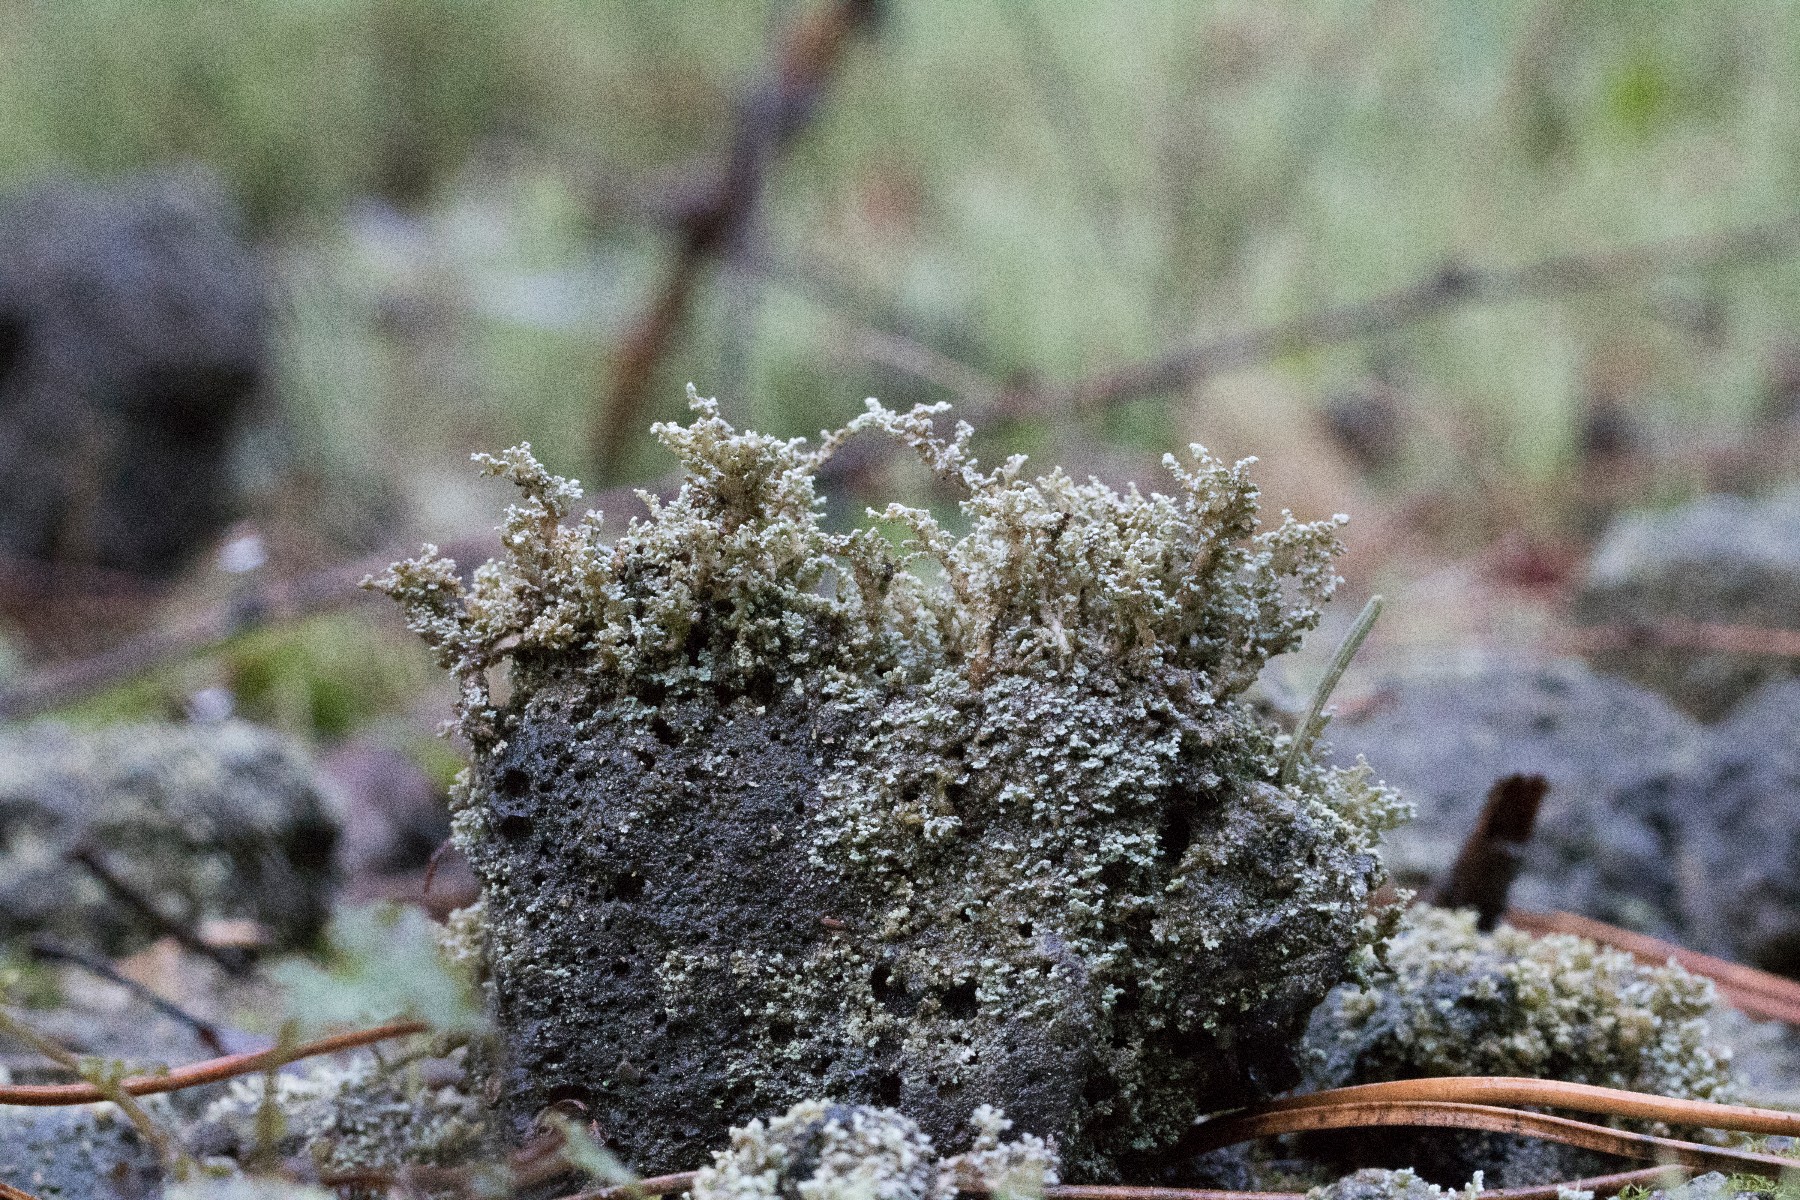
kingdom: Fungi
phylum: Ascomycota
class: Lecanoromycetes
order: Lecanorales
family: Stereocaulaceae
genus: Stereocaulon
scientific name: Stereocaulon vesuvianum
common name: skjold-korallav
